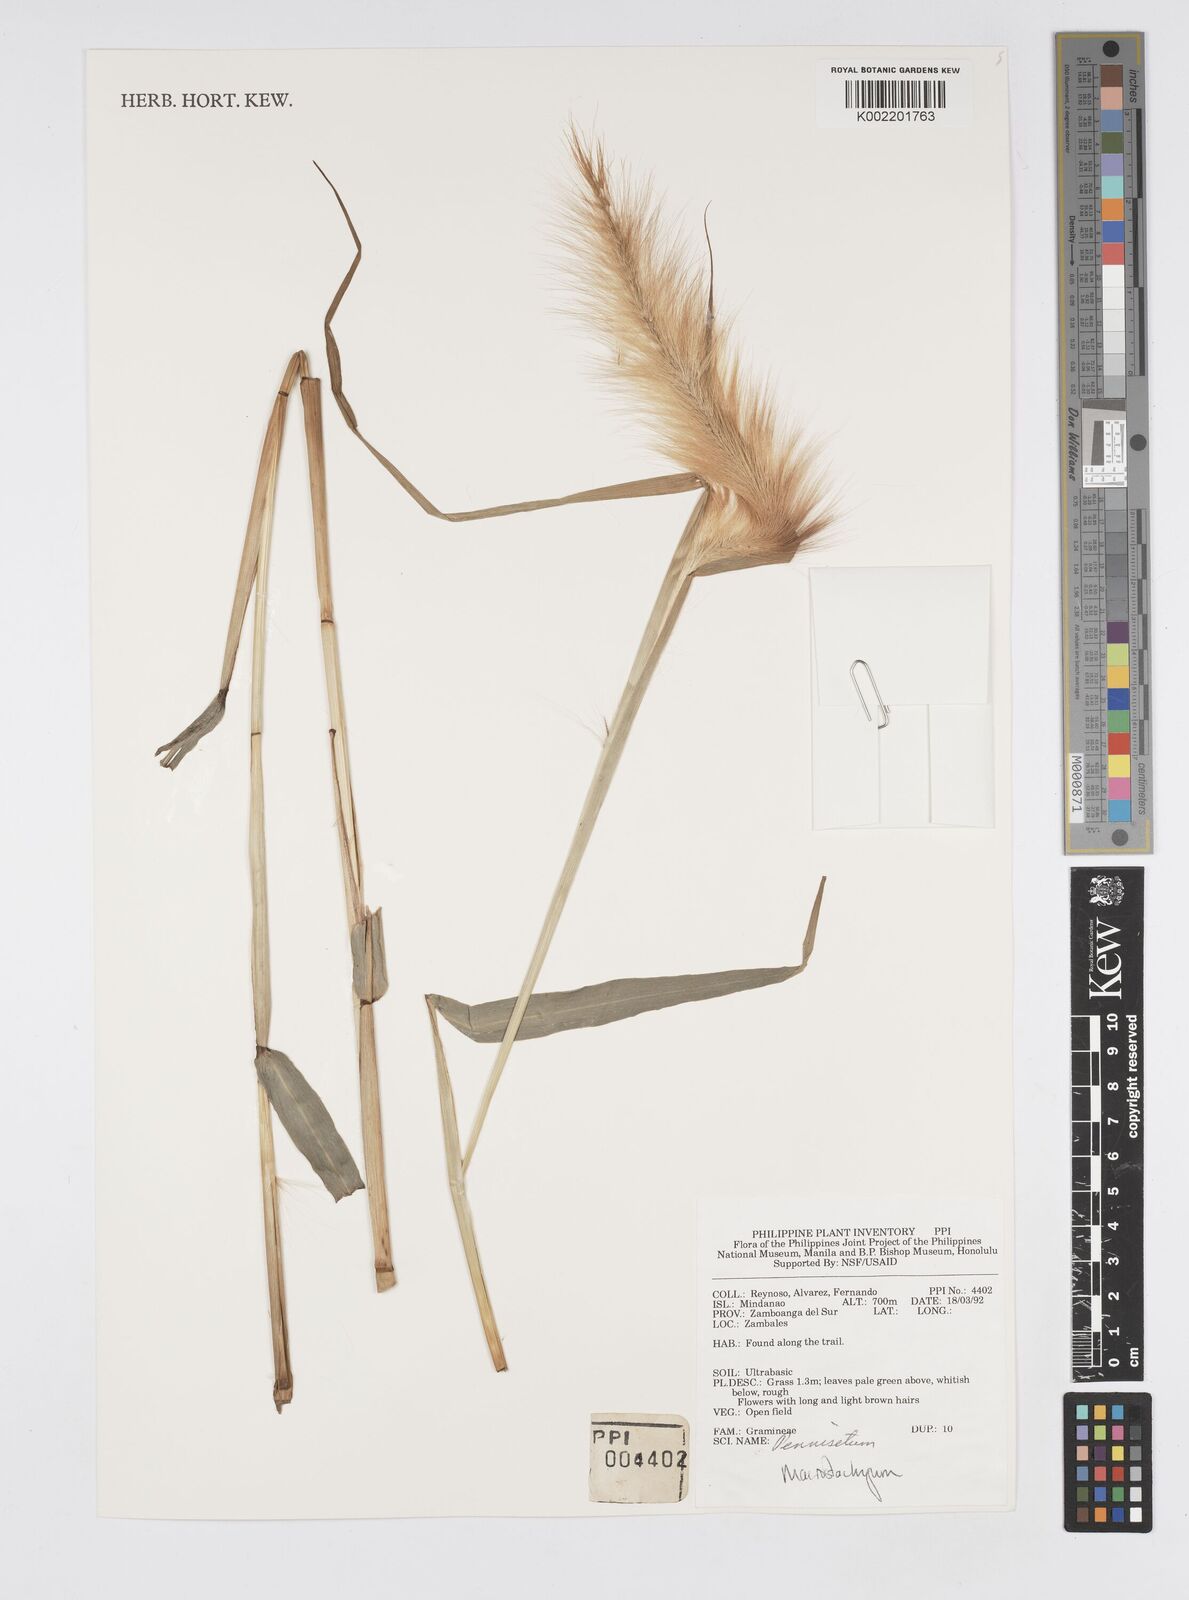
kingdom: Plantae
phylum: Tracheophyta
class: Liliopsida
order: Poales
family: Poaceae
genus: Cenchrus
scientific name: Cenchrus purpureus
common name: Elephant grass
